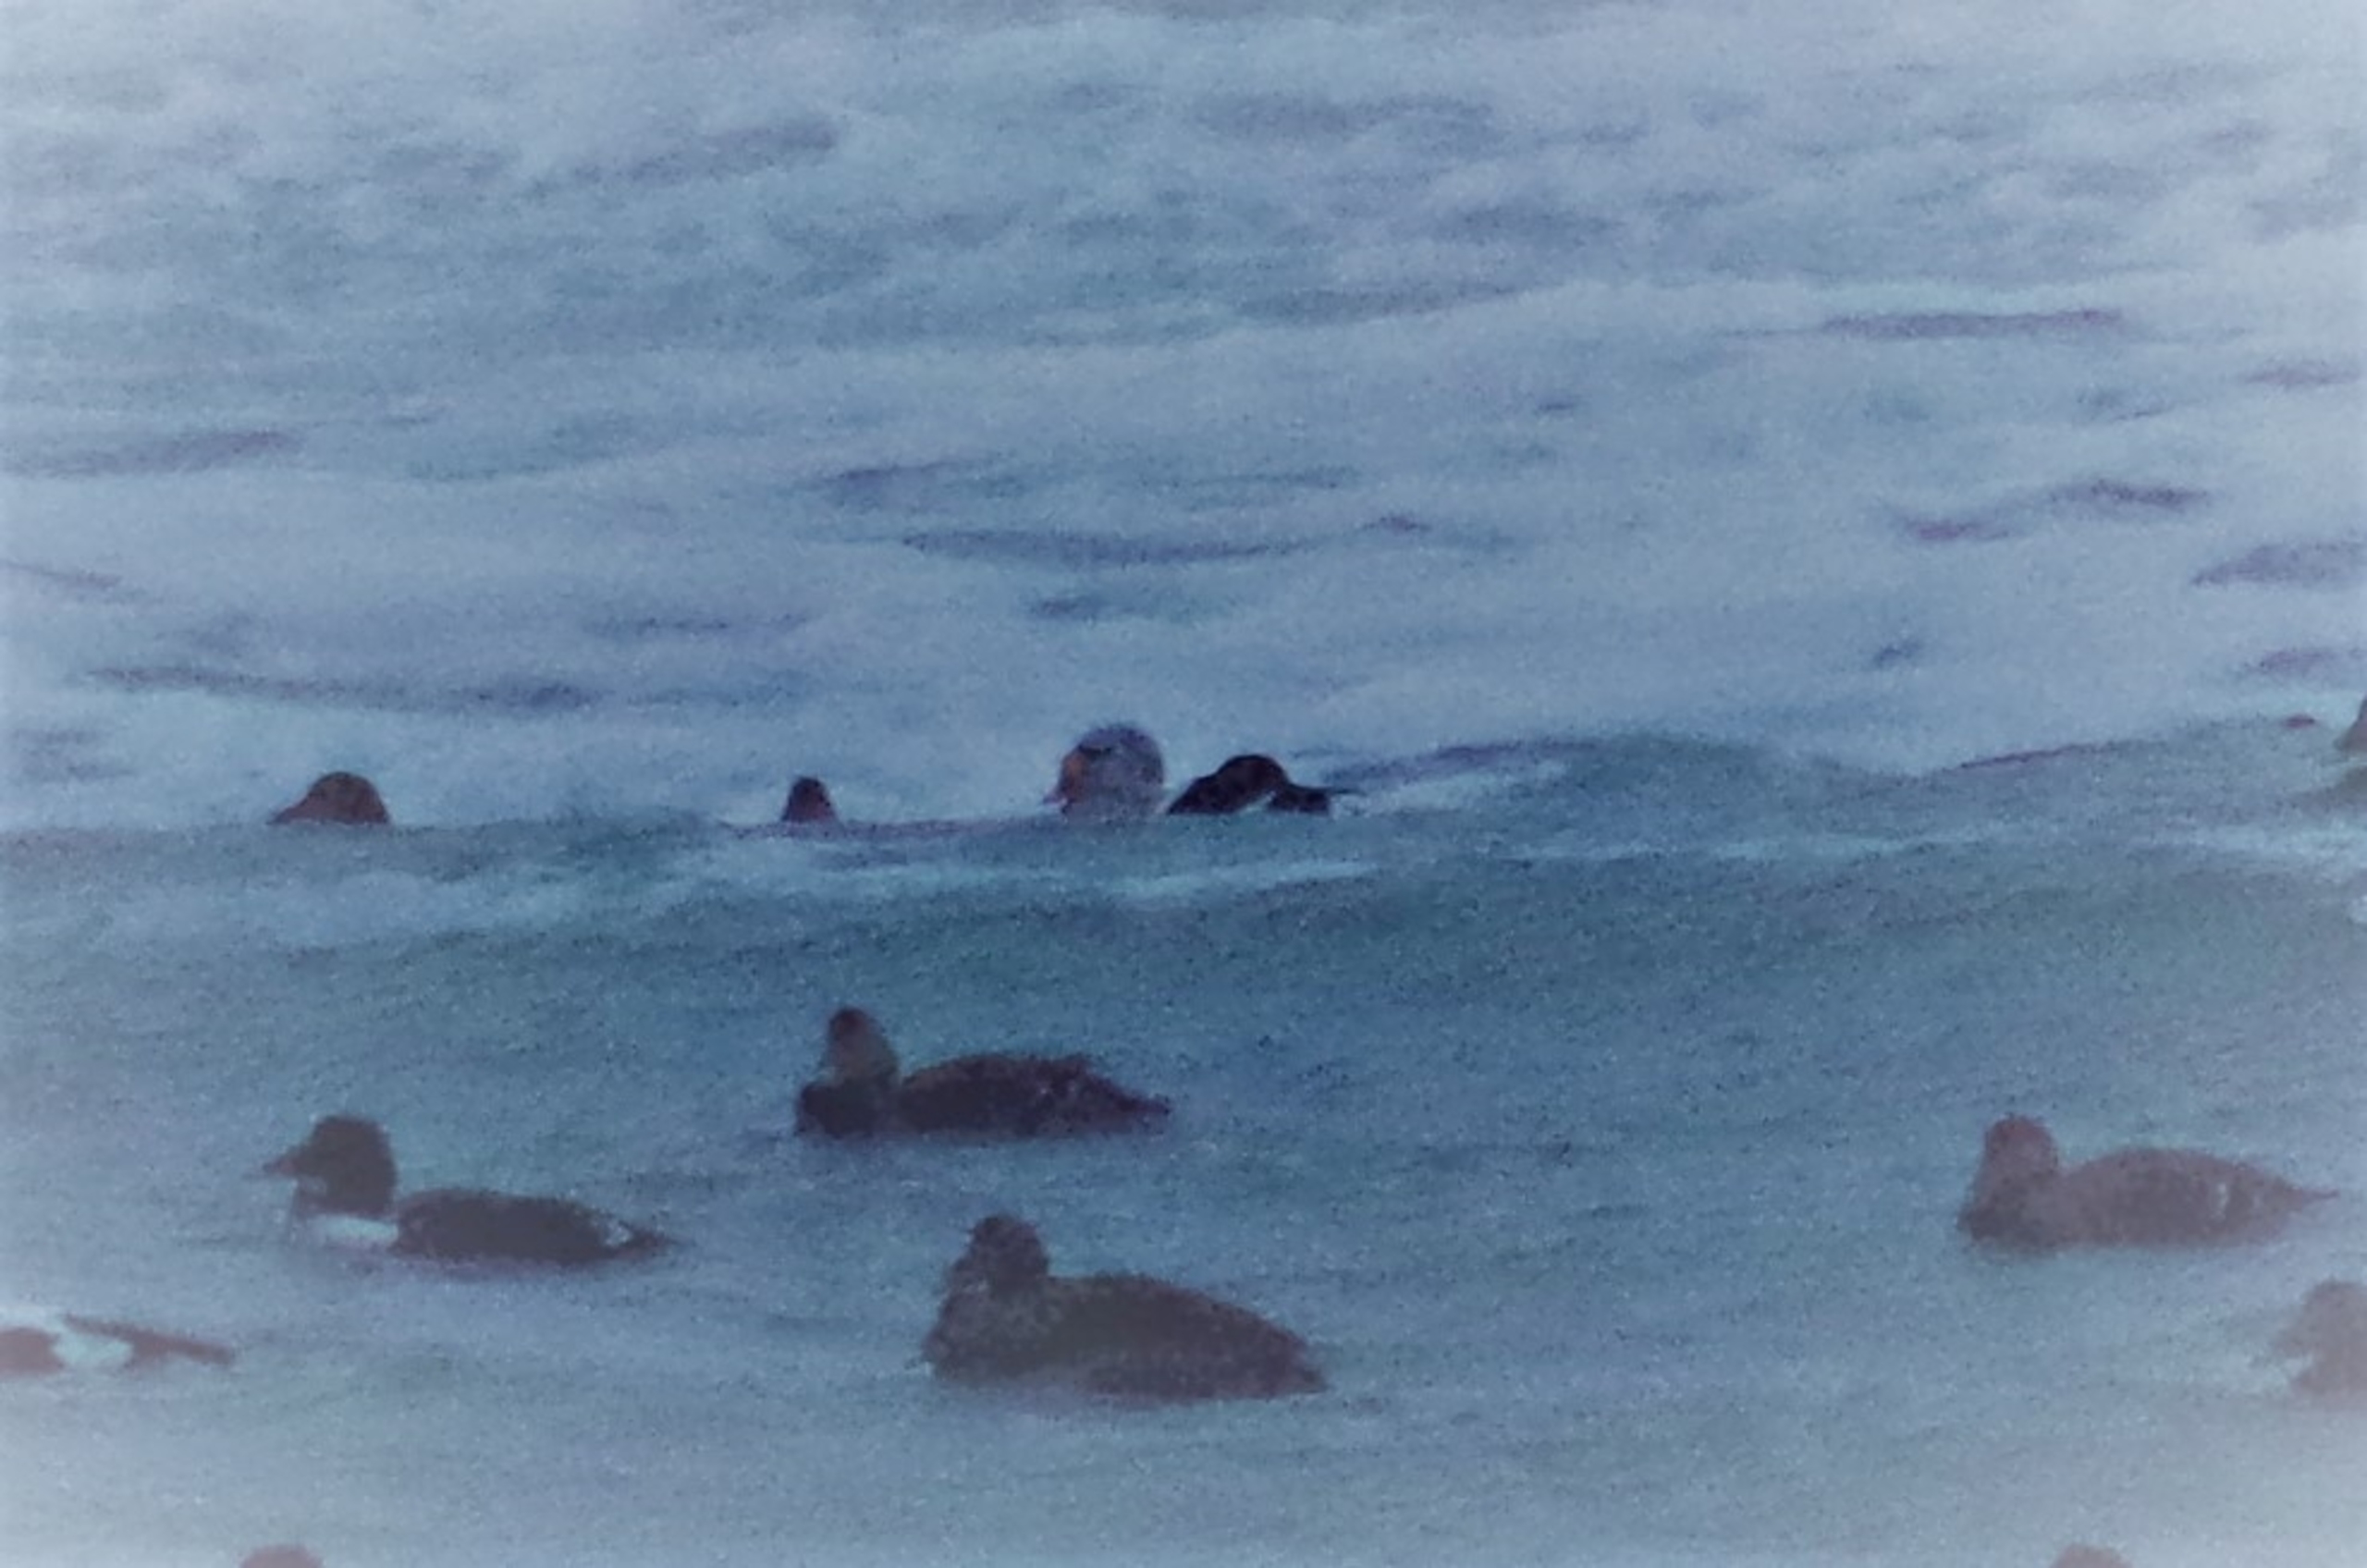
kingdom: Animalia
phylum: Chordata
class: Aves
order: Anseriformes
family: Anatidae
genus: Somateria
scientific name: Somateria spectabilis
